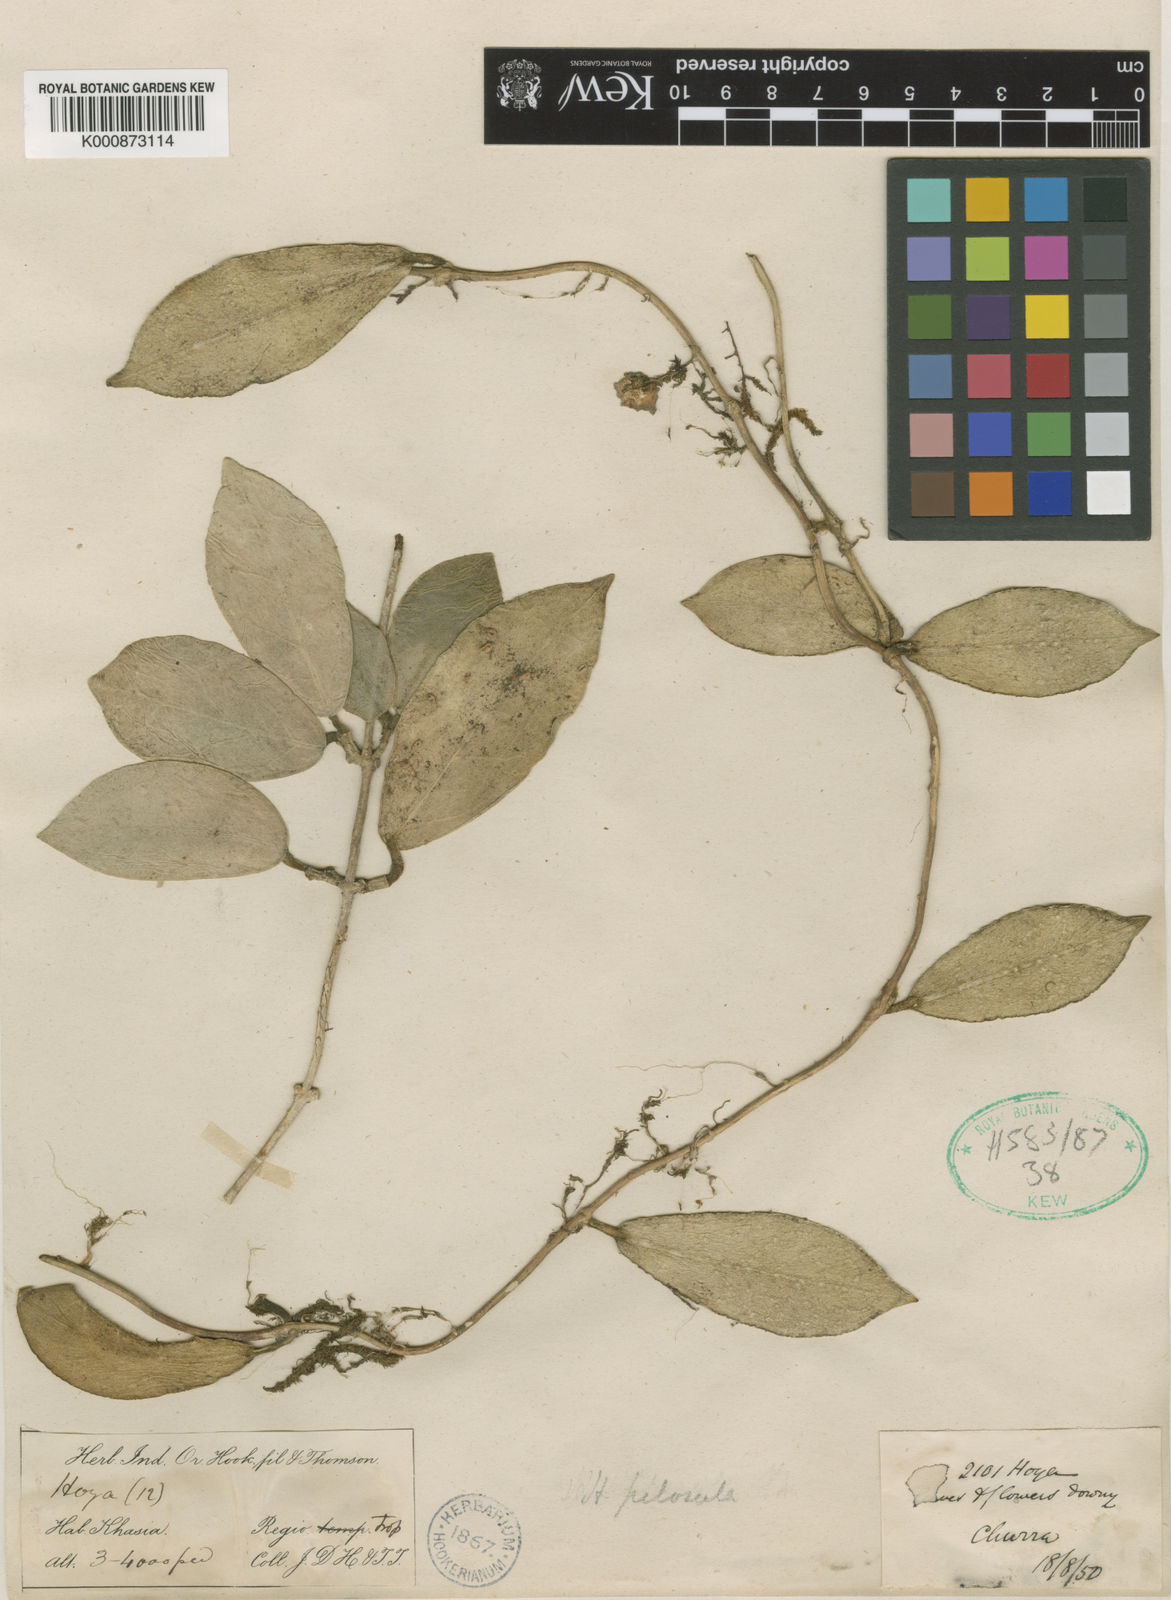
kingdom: Plantae
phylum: Tracheophyta
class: Magnoliopsida
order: Gentianales
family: Apocynaceae
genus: Hoya
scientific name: Hoya thomsonii
